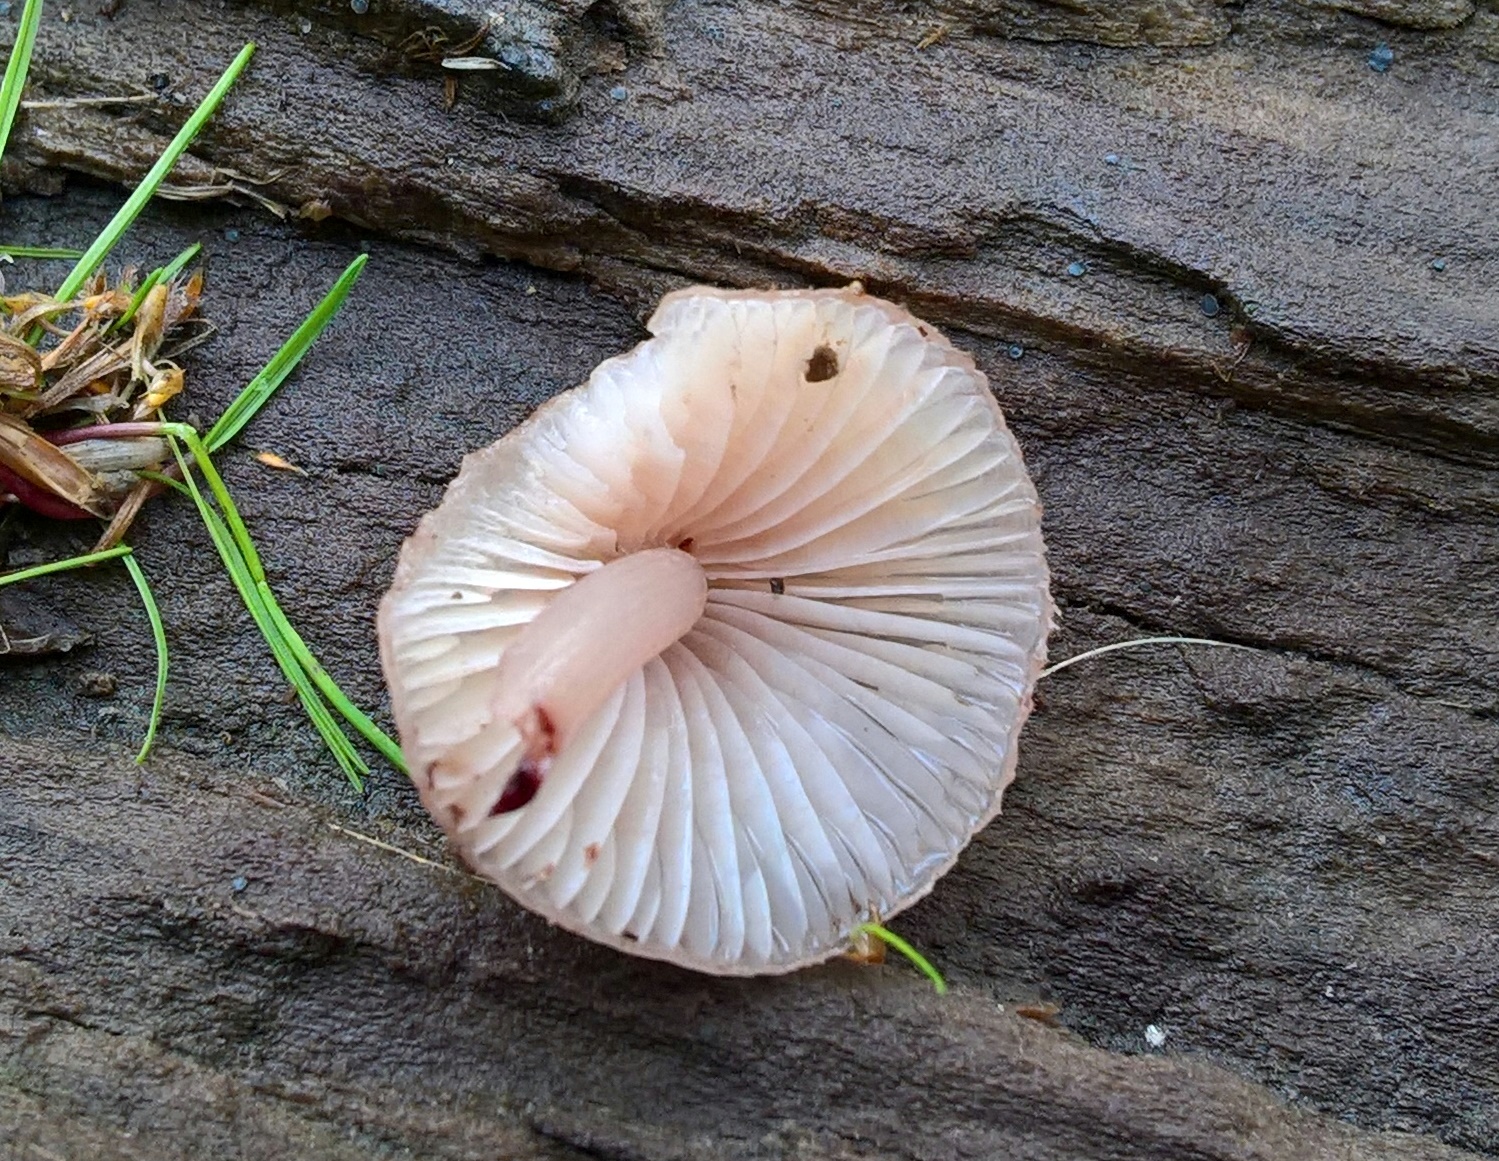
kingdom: Fungi
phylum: Basidiomycota
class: Agaricomycetes
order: Agaricales
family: Mycenaceae
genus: Mycena
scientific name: Mycena haematopus
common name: blødende huesvamp
